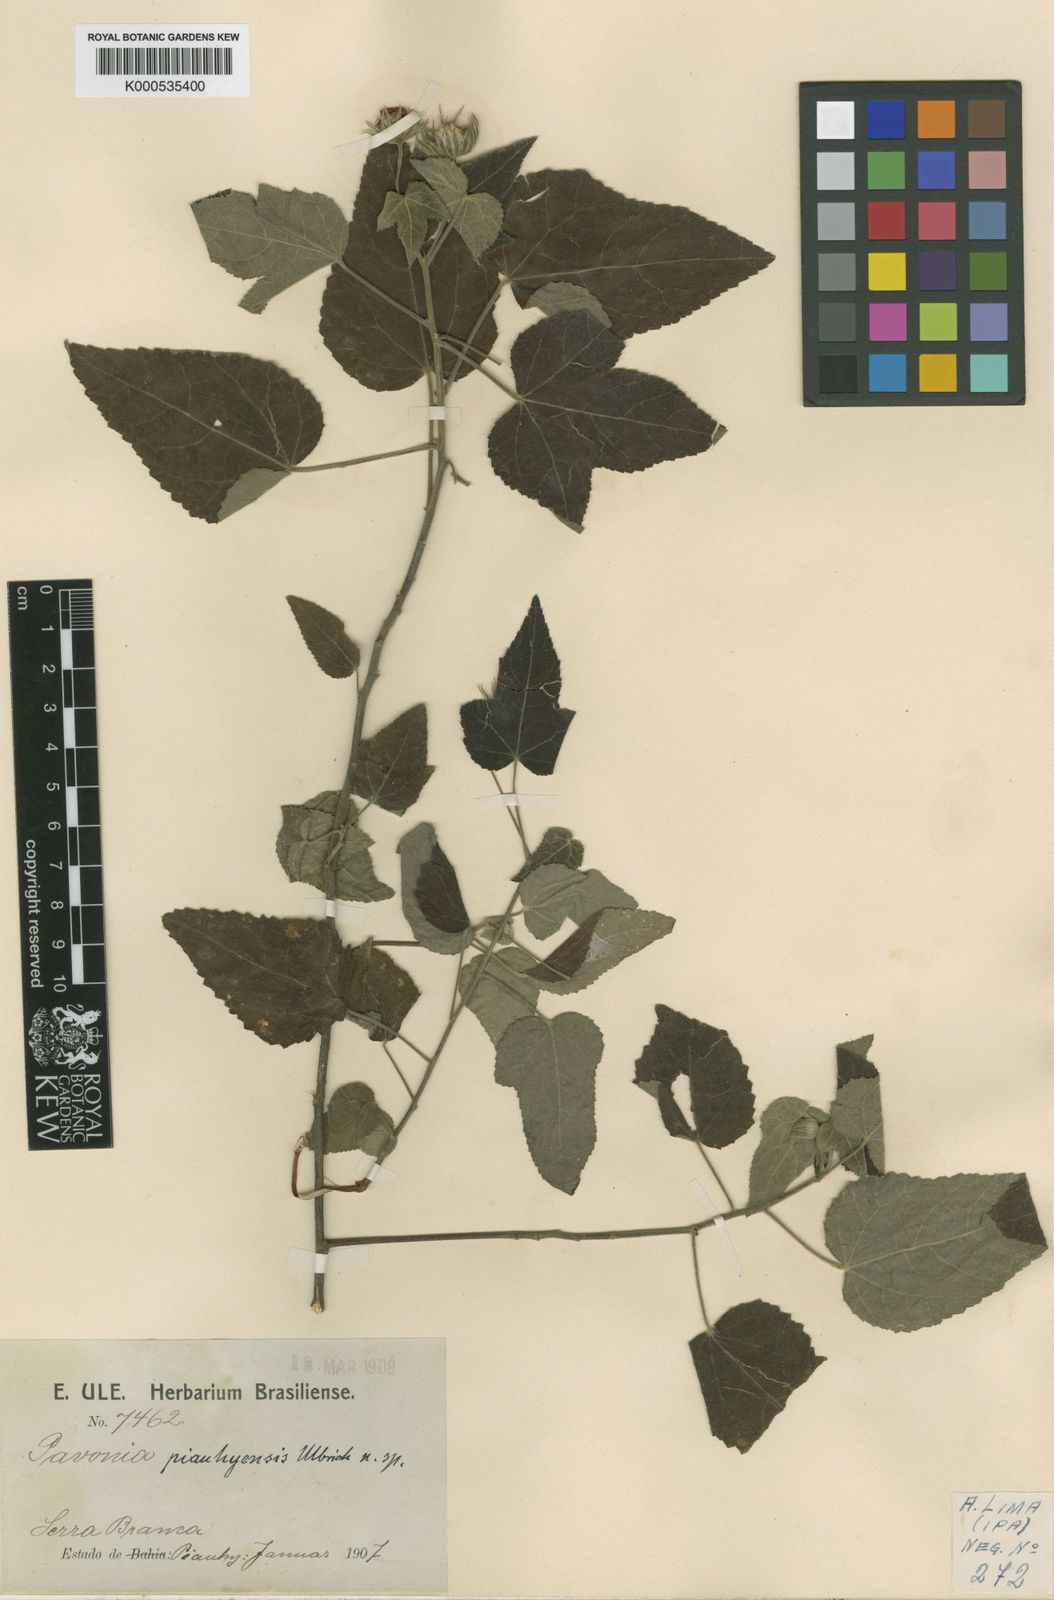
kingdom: Plantae
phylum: Tracheophyta
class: Magnoliopsida
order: Malvales
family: Malvaceae
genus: Pavonia
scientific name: Pavonia piauhyensis
